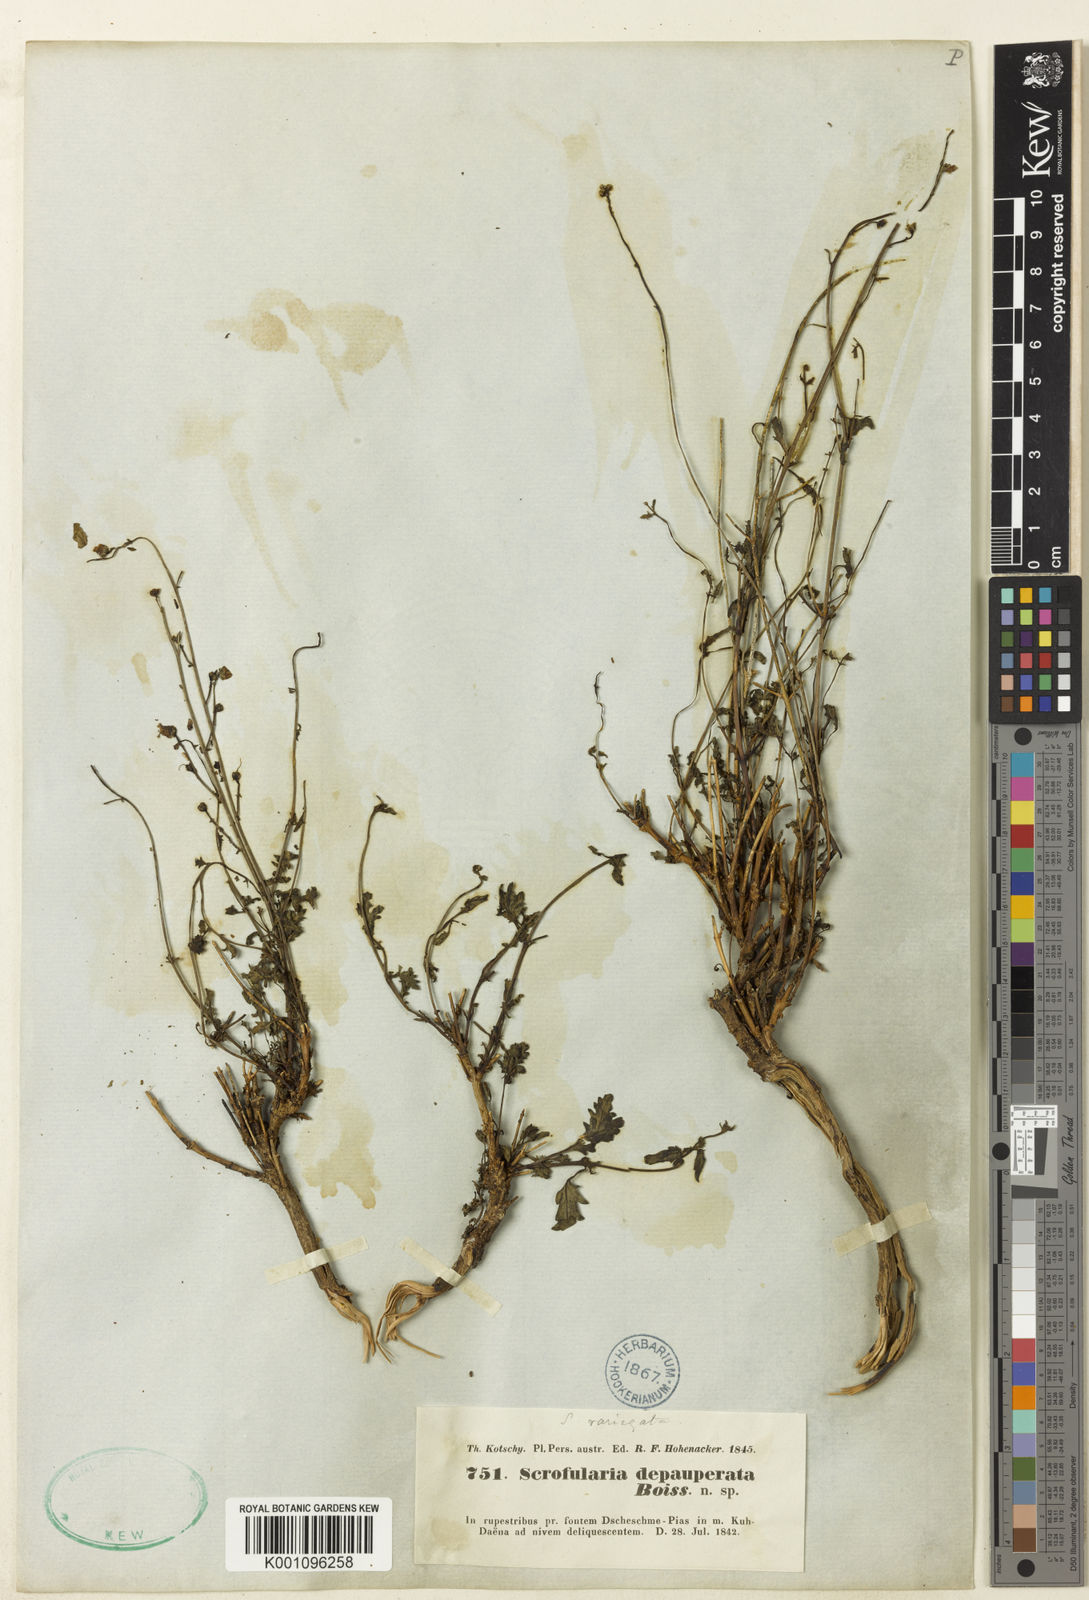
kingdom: Plantae
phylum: Tracheophyta
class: Magnoliopsida
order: Lamiales
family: Scrophulariaceae
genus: Scrophularia
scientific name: Scrophularia depauperata
